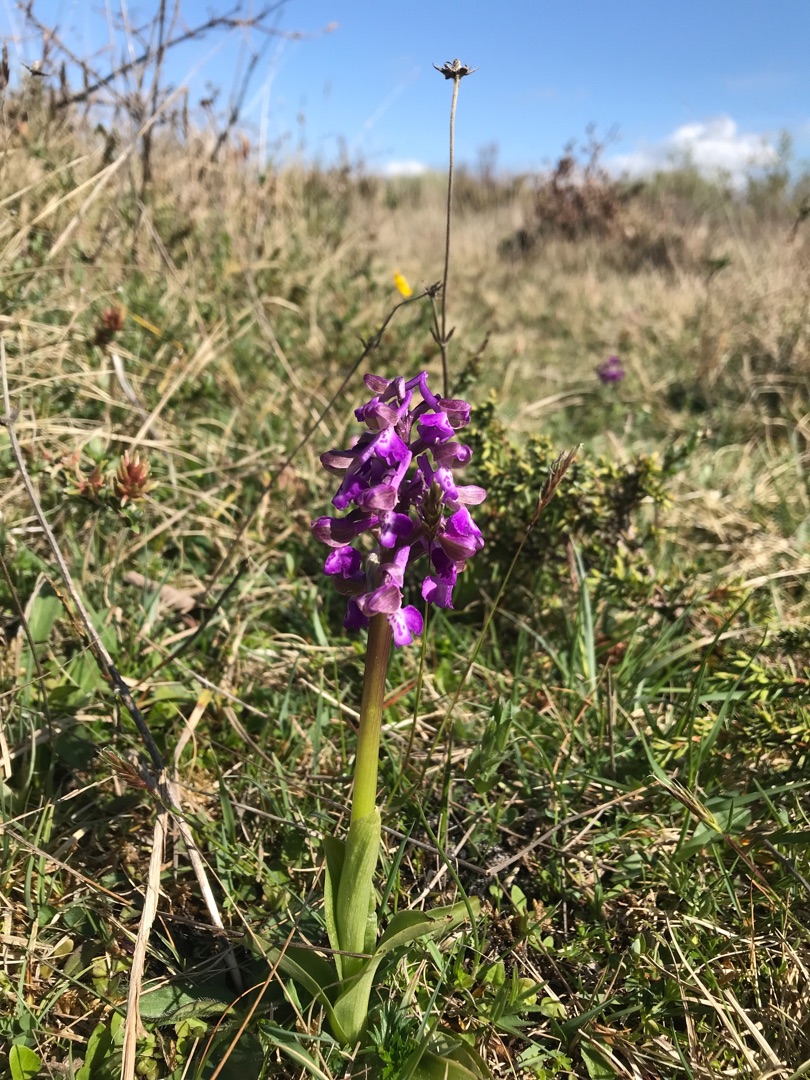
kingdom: Plantae
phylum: Tracheophyta
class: Liliopsida
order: Asparagales
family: Orchidaceae
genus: Anacamptis
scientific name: Anacamptis morio
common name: Salepgøgeurt
